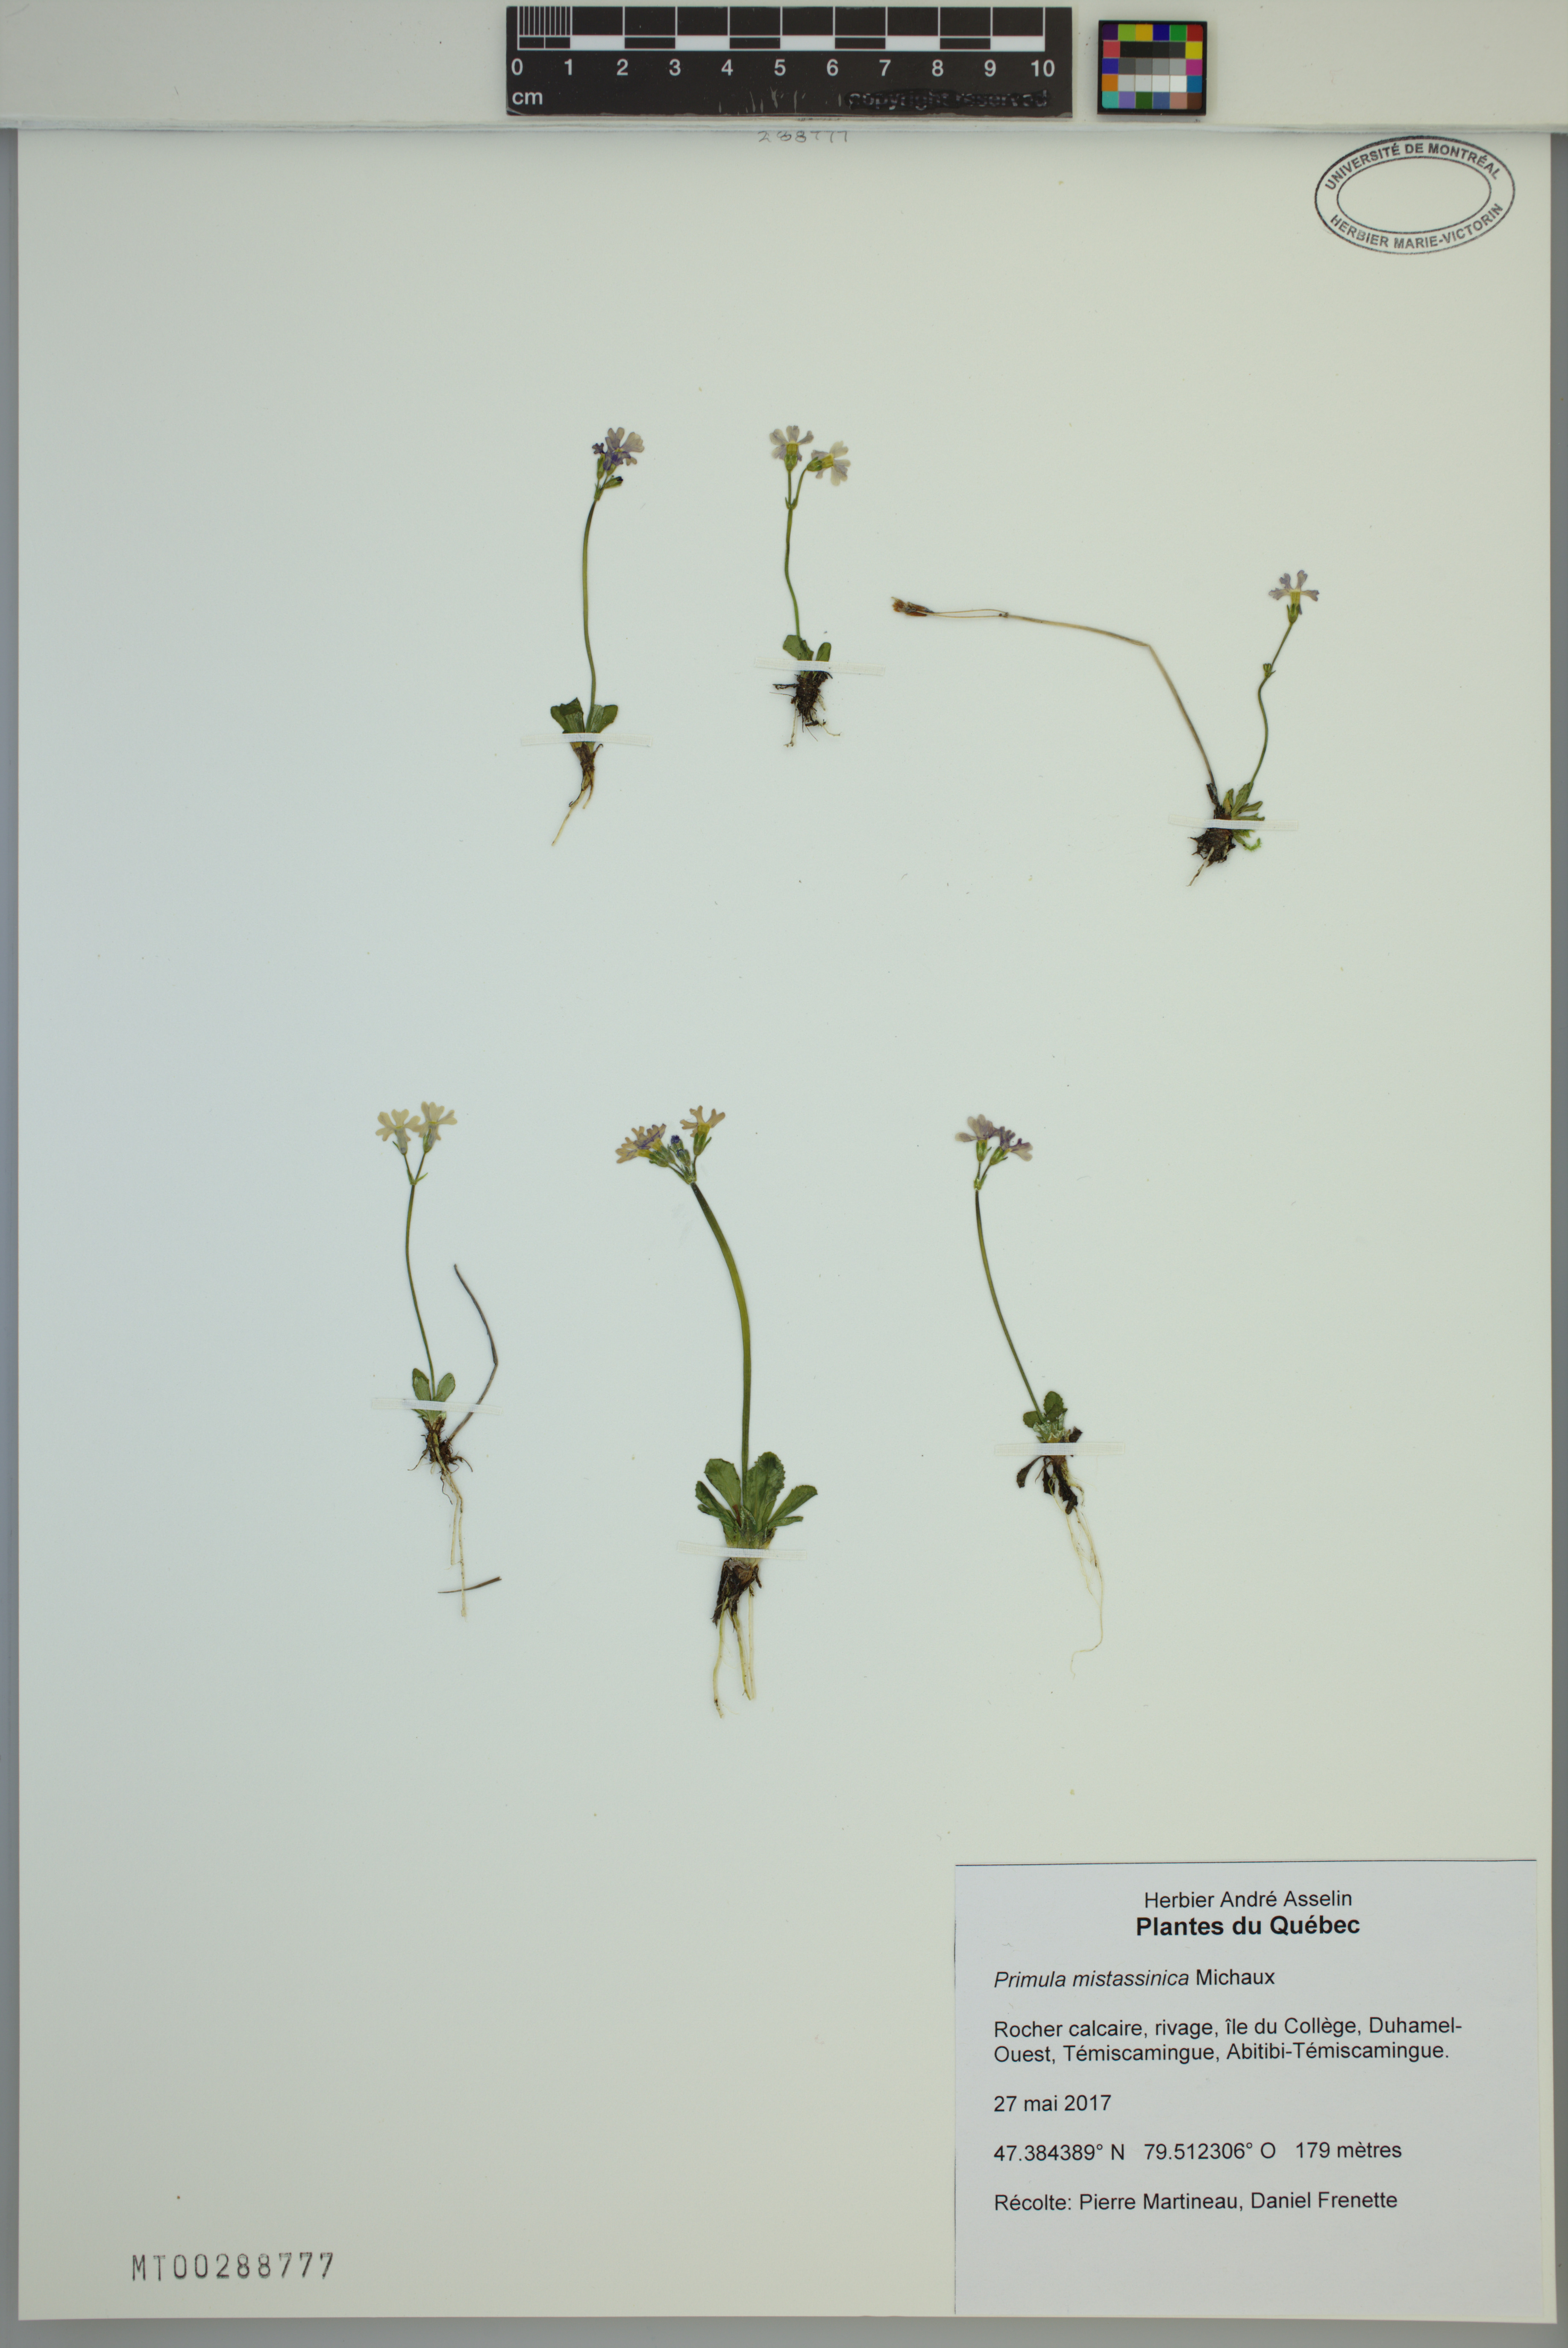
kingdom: Plantae
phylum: Tracheophyta
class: Magnoliopsida
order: Ericales
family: Primulaceae
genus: Primula
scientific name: Primula mistassinica
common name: Bird's-eye primrose
